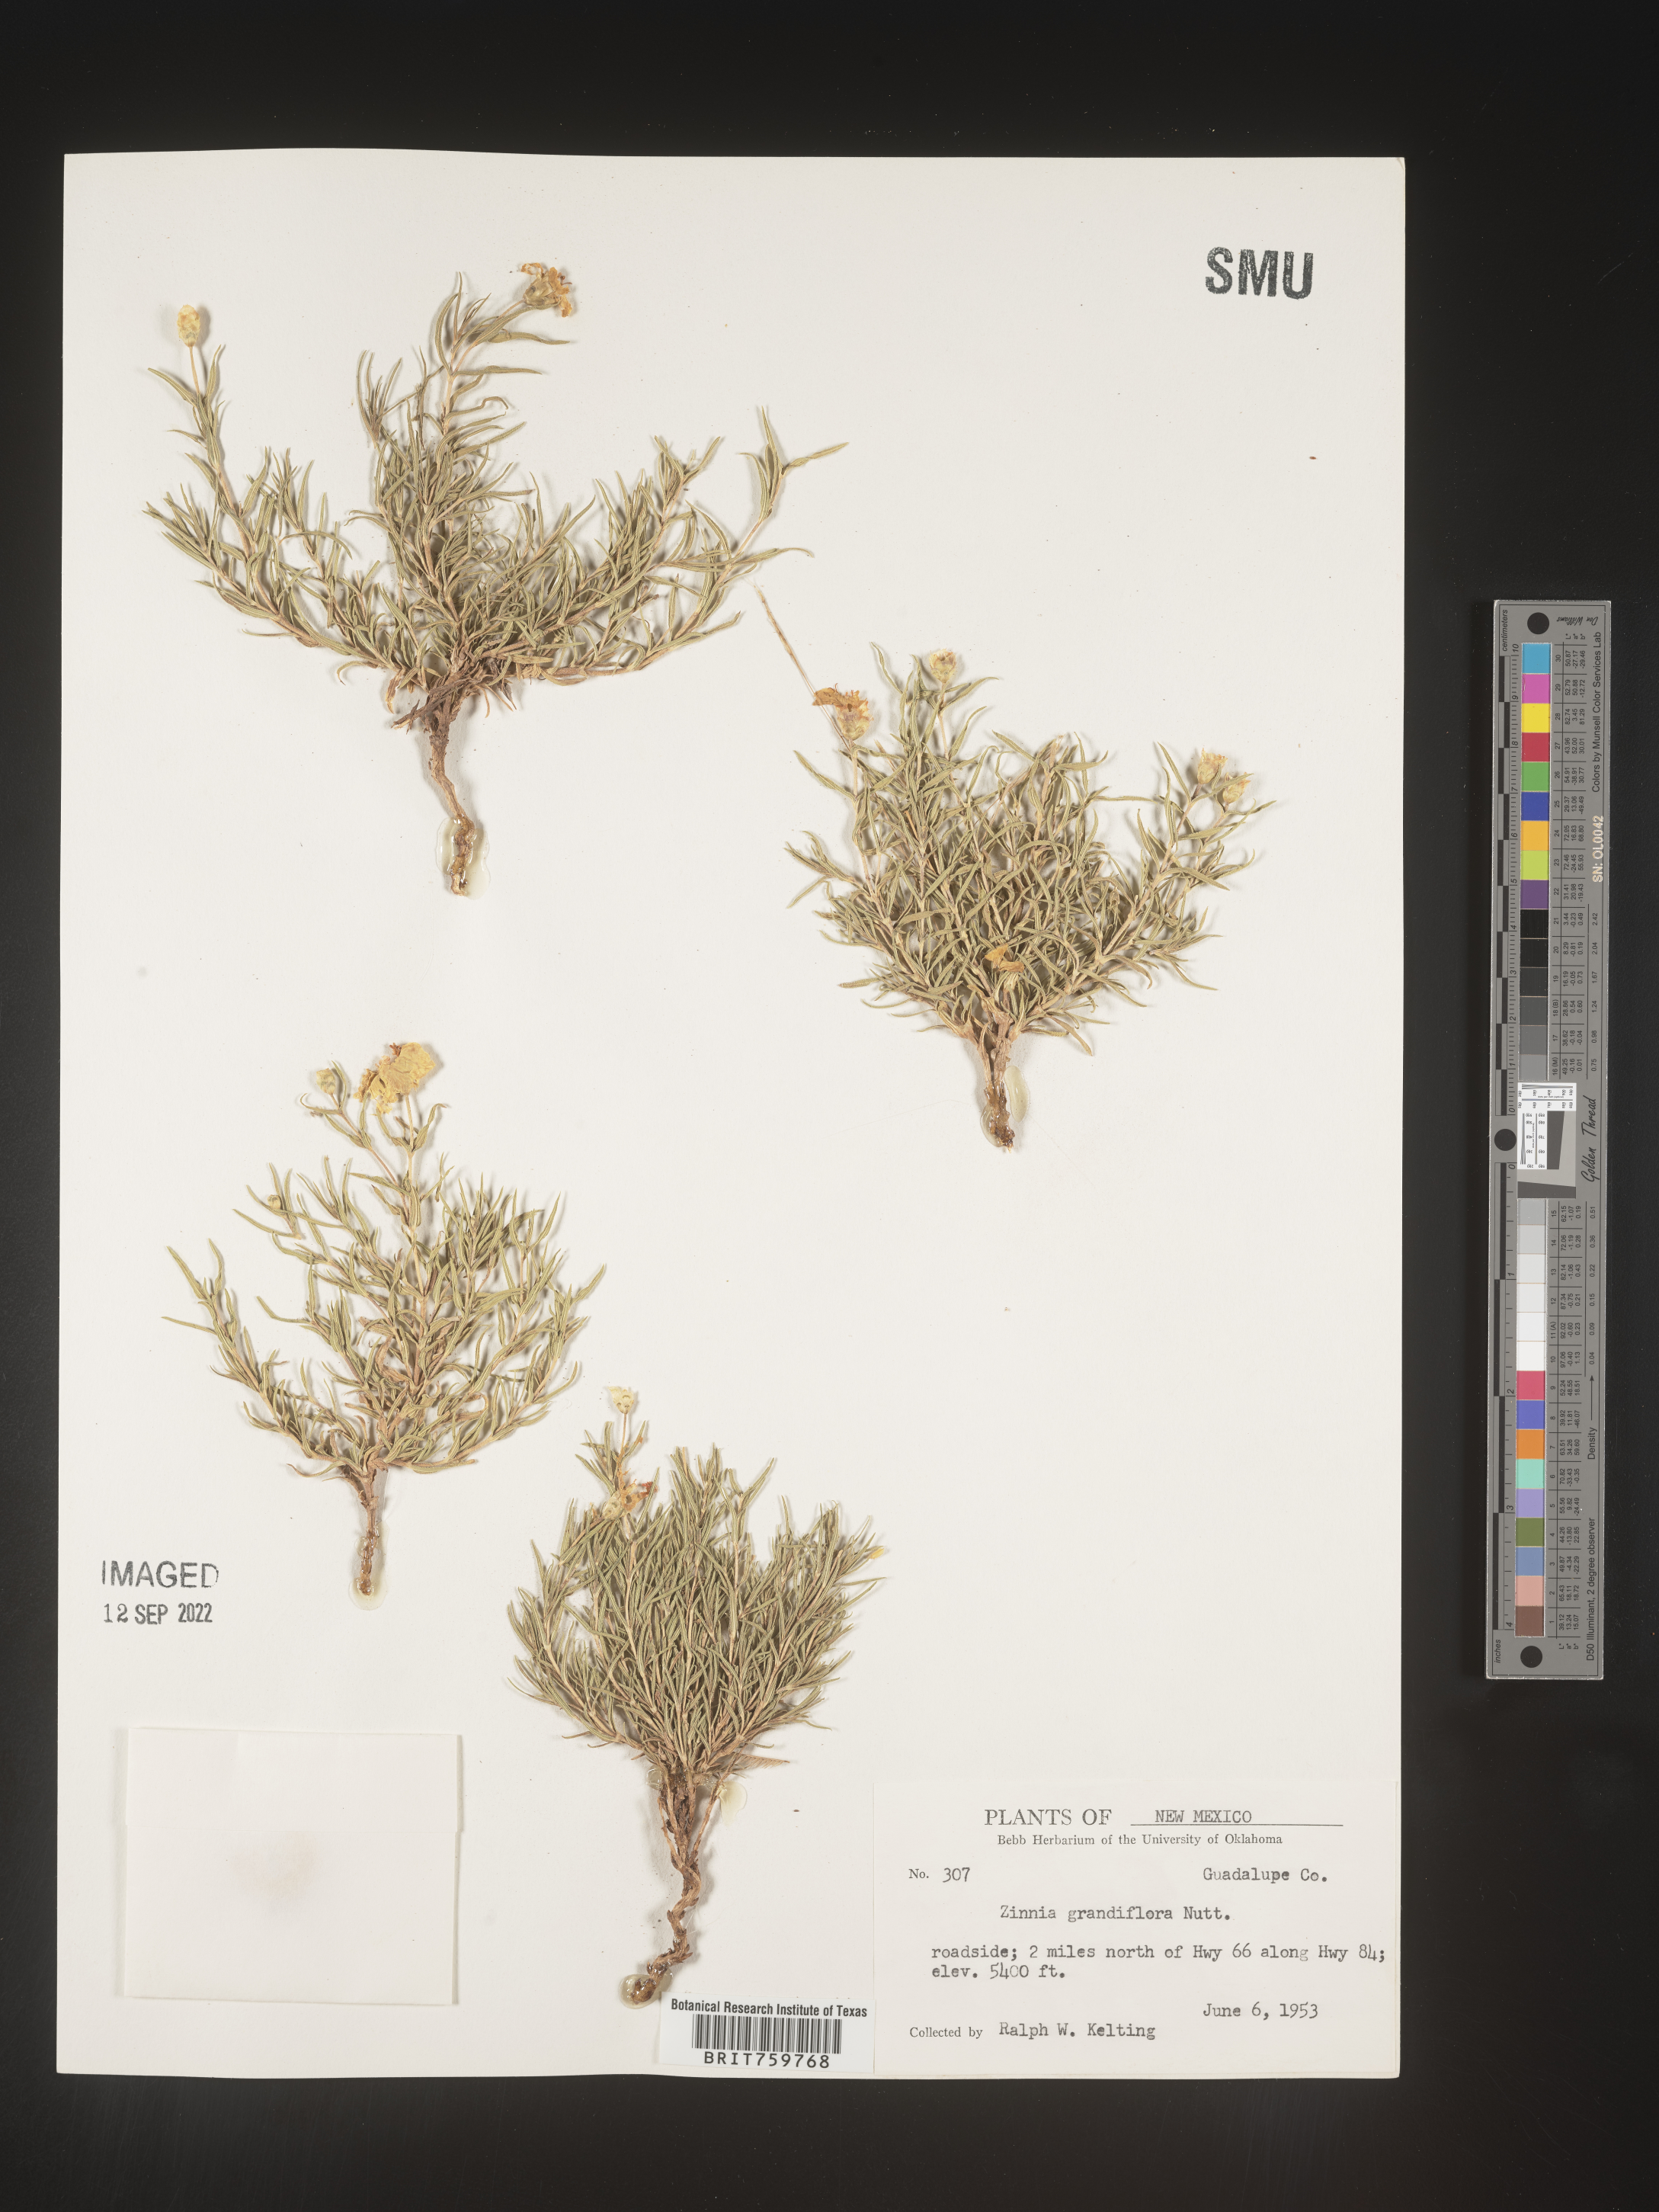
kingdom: Plantae
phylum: Tracheophyta
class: Magnoliopsida
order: Asterales
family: Asteraceae
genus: Zinnia
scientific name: Zinnia grandiflora
